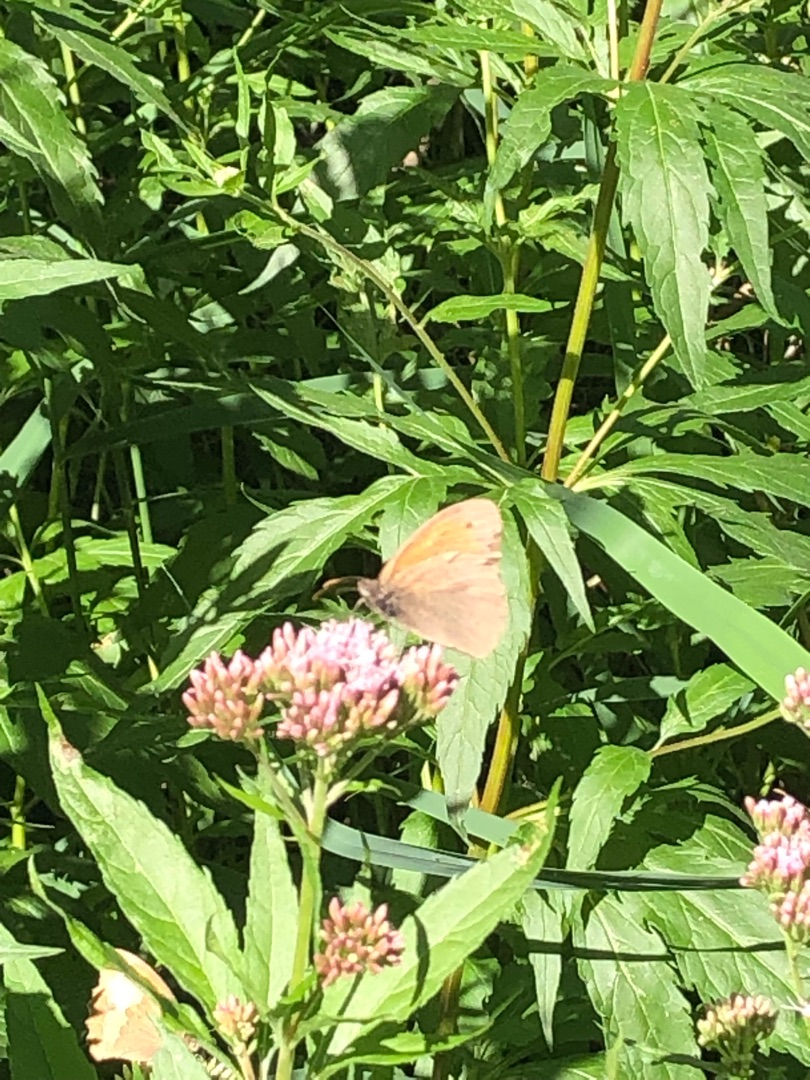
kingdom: Animalia
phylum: Arthropoda
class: Insecta
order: Lepidoptera
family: Nymphalidae
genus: Maniola
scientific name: Maniola jurtina
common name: Græsrandøje
